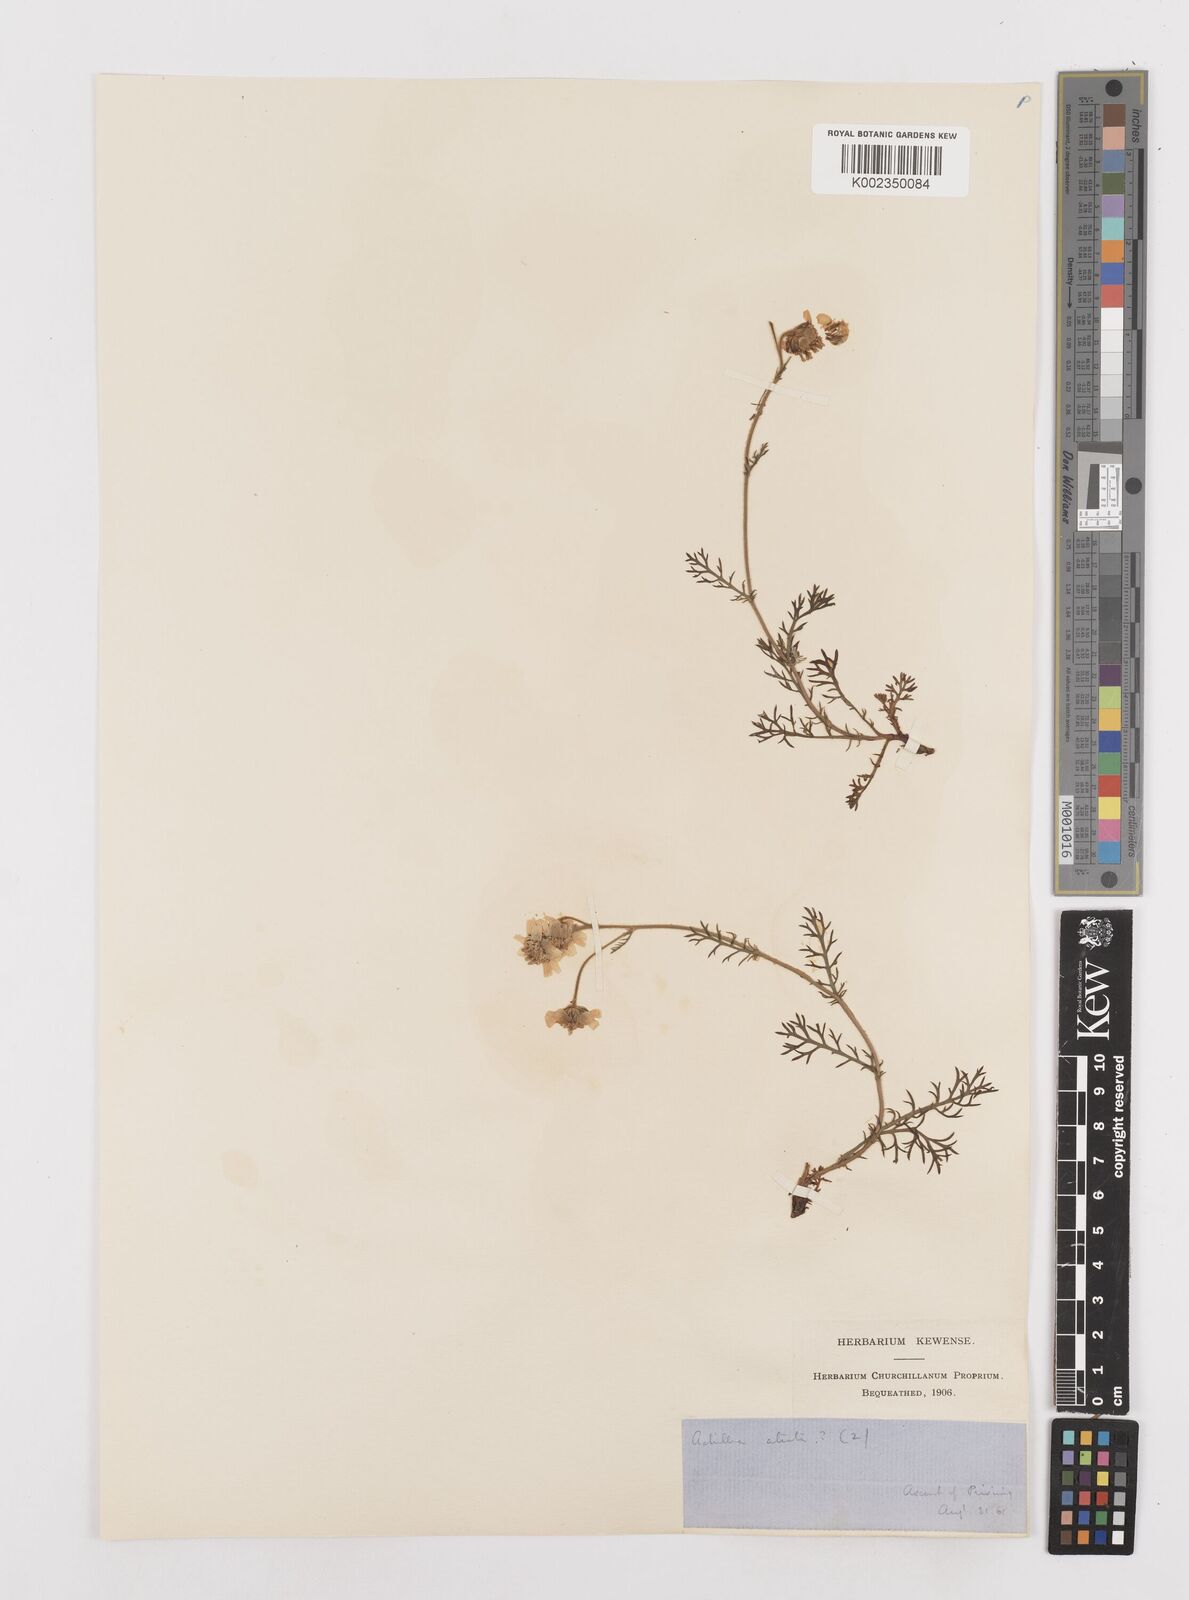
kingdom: Plantae
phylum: Tracheophyta
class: Magnoliopsida
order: Asterales
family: Asteraceae
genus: Achillea
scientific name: Achillea atrata
